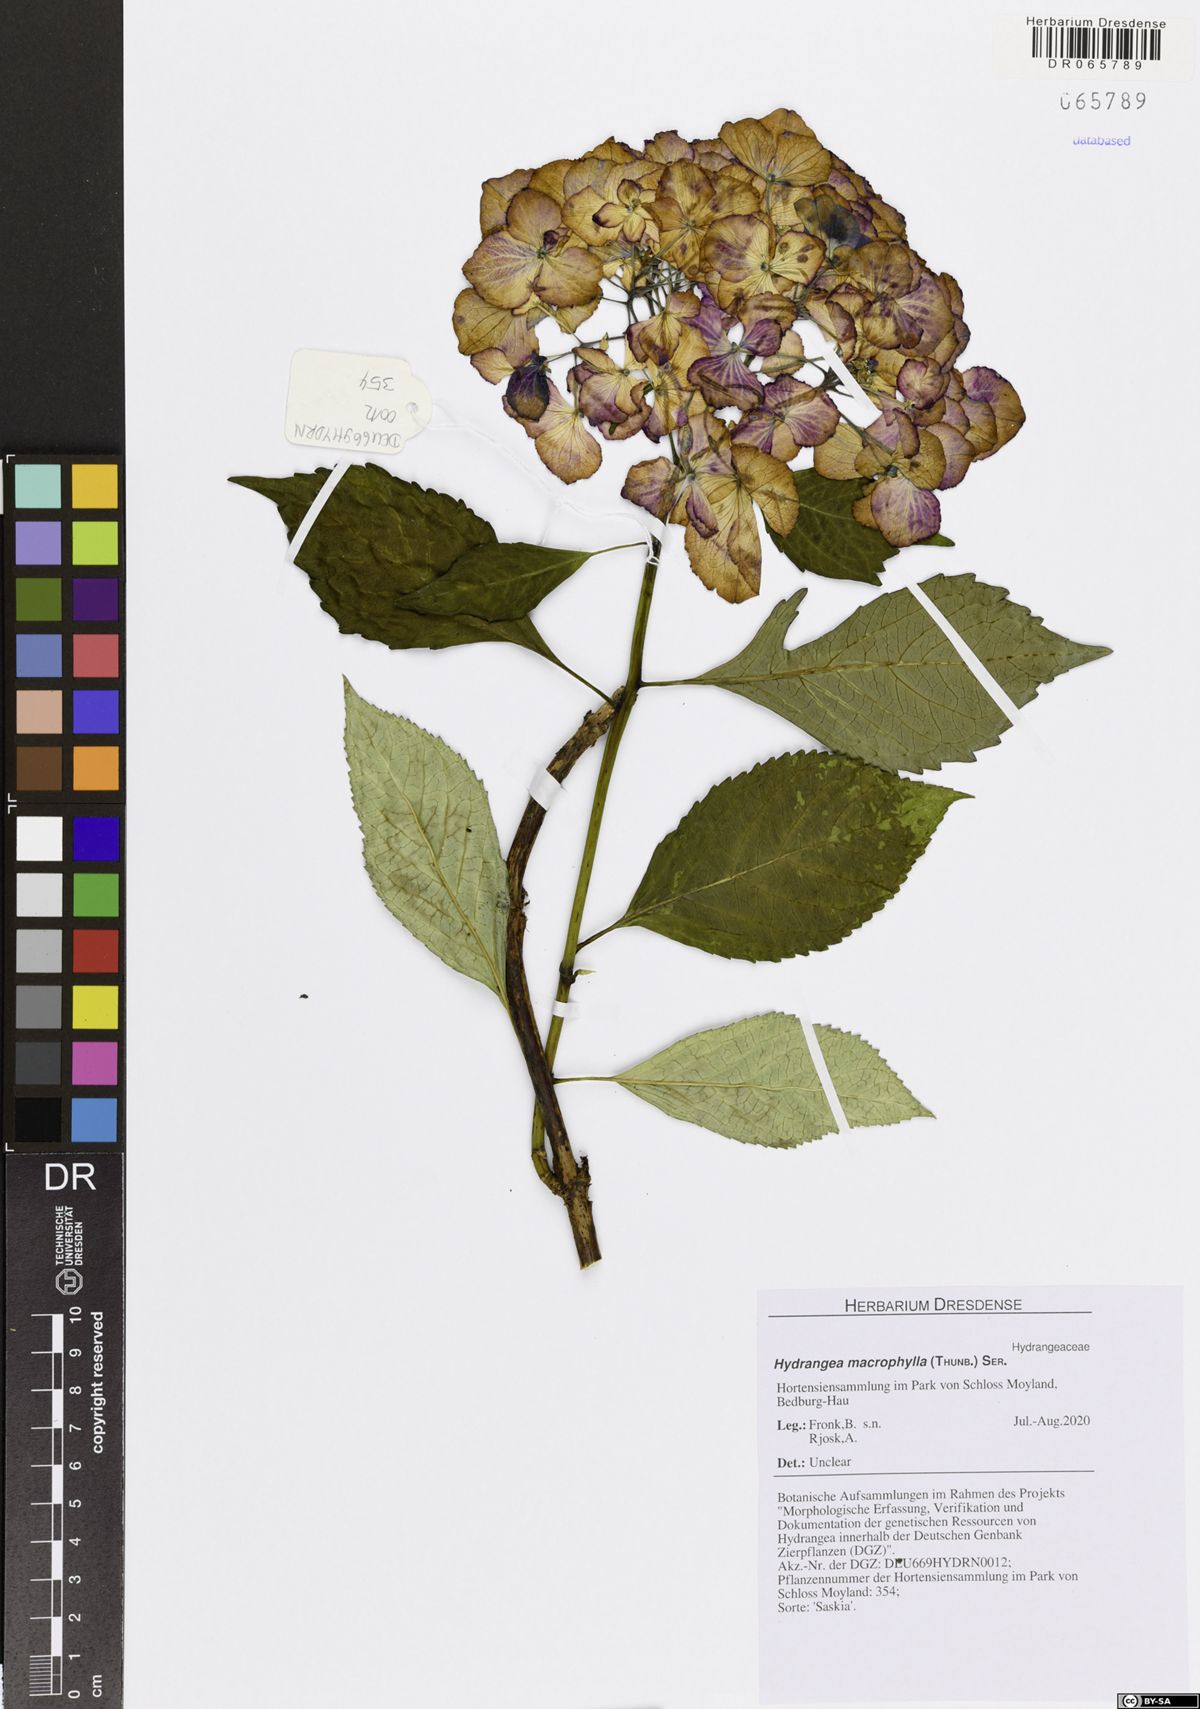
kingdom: Plantae
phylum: Tracheophyta
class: Magnoliopsida
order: Cornales
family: Hydrangeaceae
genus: Hydrangea
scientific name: Hydrangea macrophylla
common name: Hydrangea
